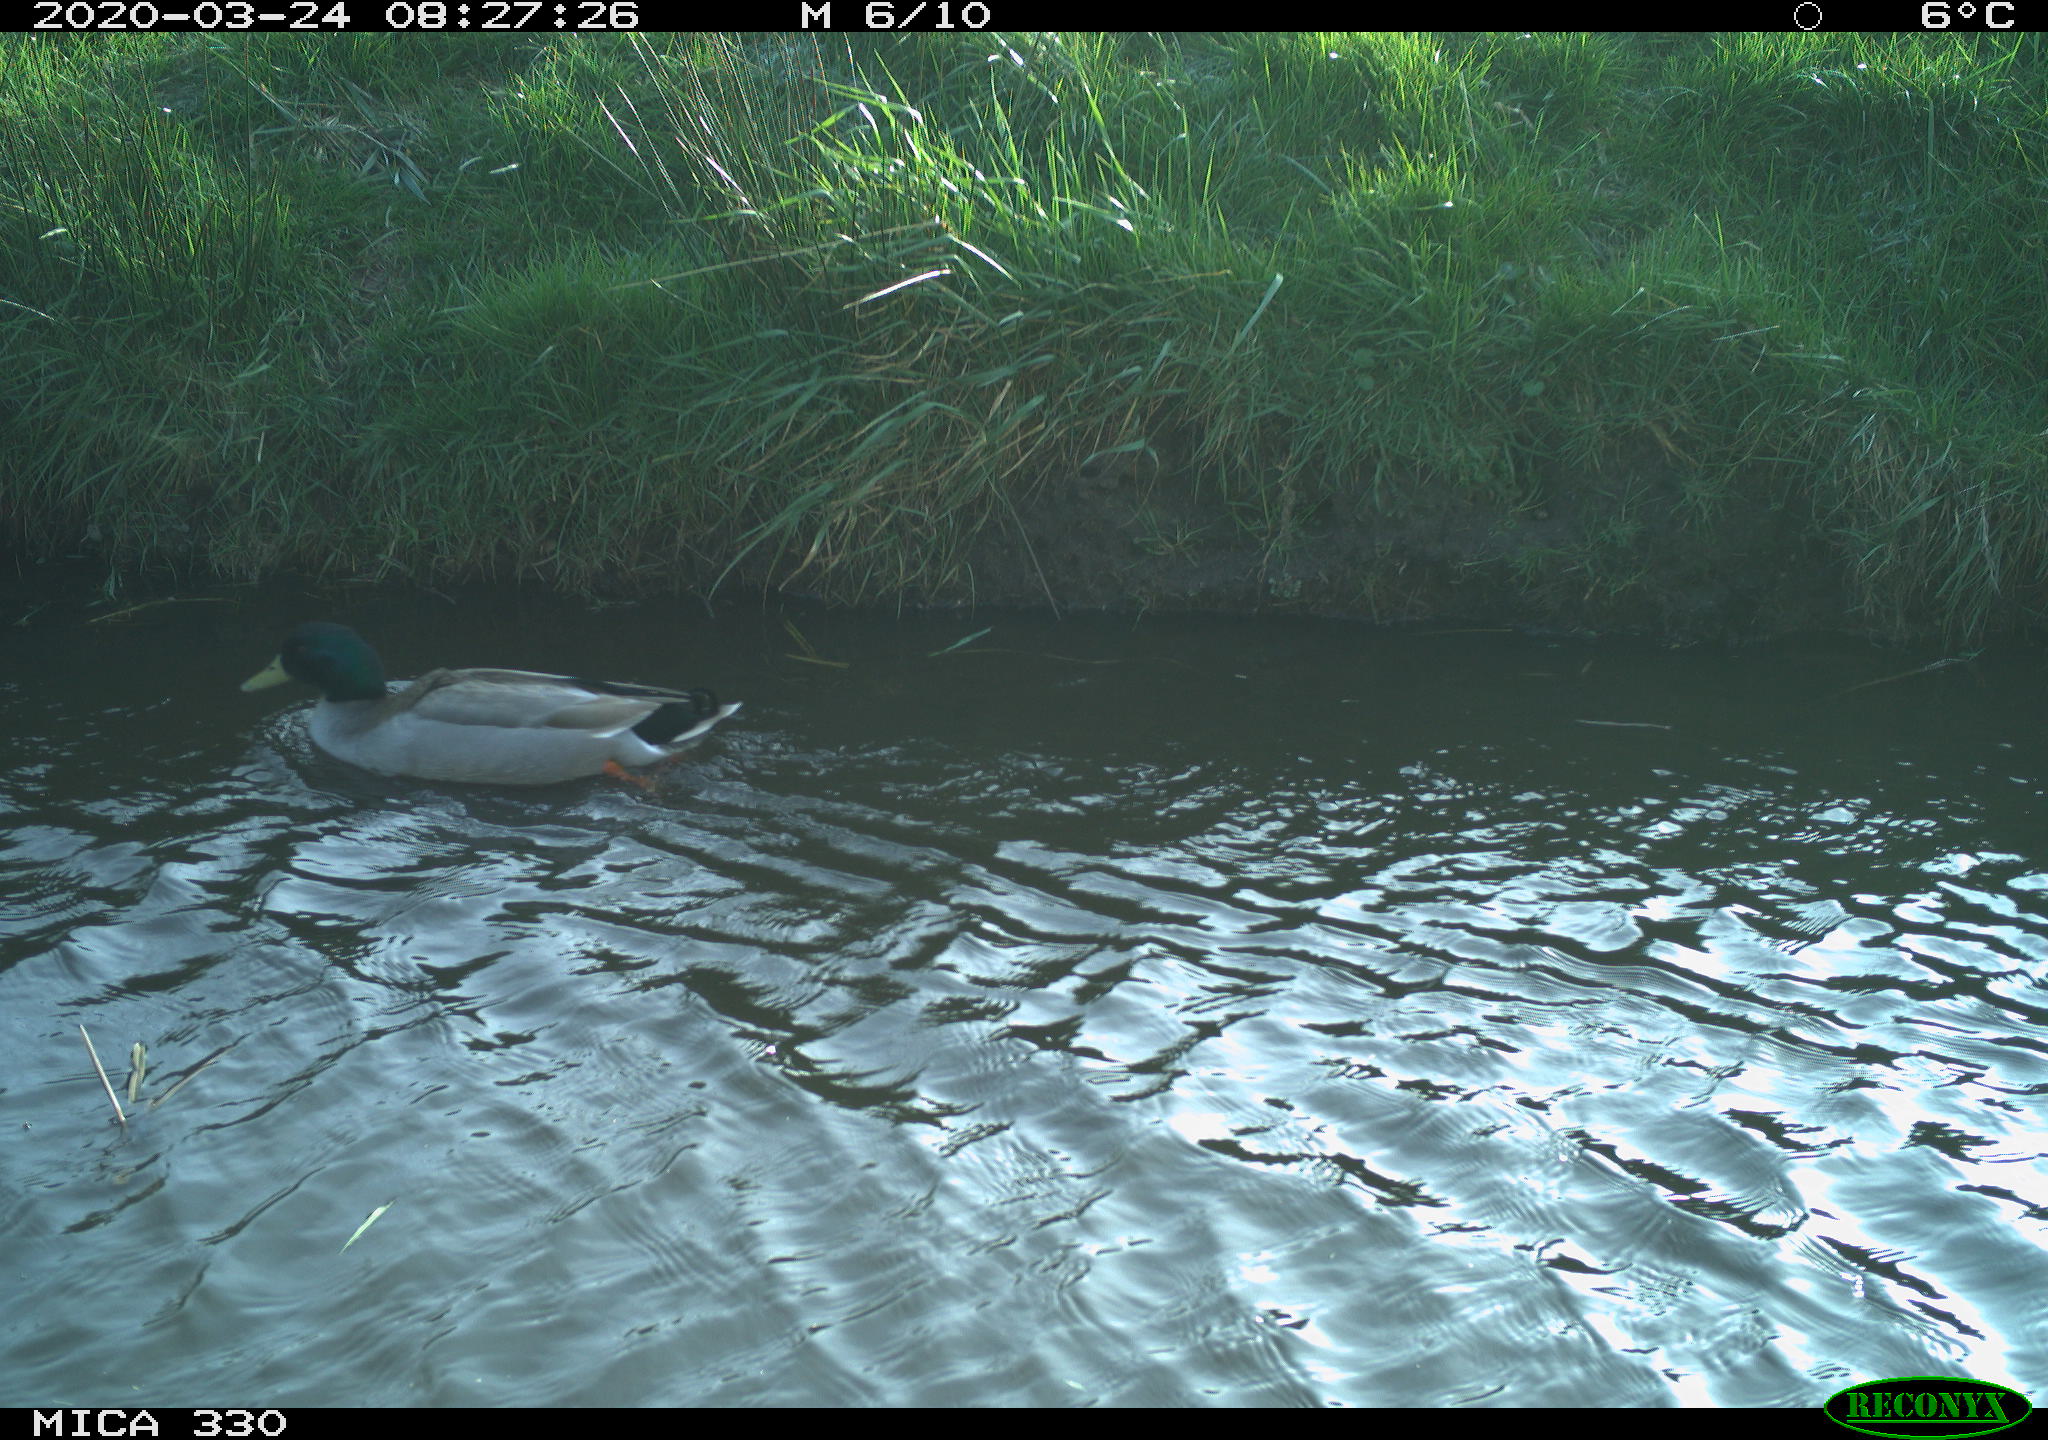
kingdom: Animalia
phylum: Chordata
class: Aves
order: Anseriformes
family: Anatidae
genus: Anas
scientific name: Anas platyrhynchos
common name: Mallard
